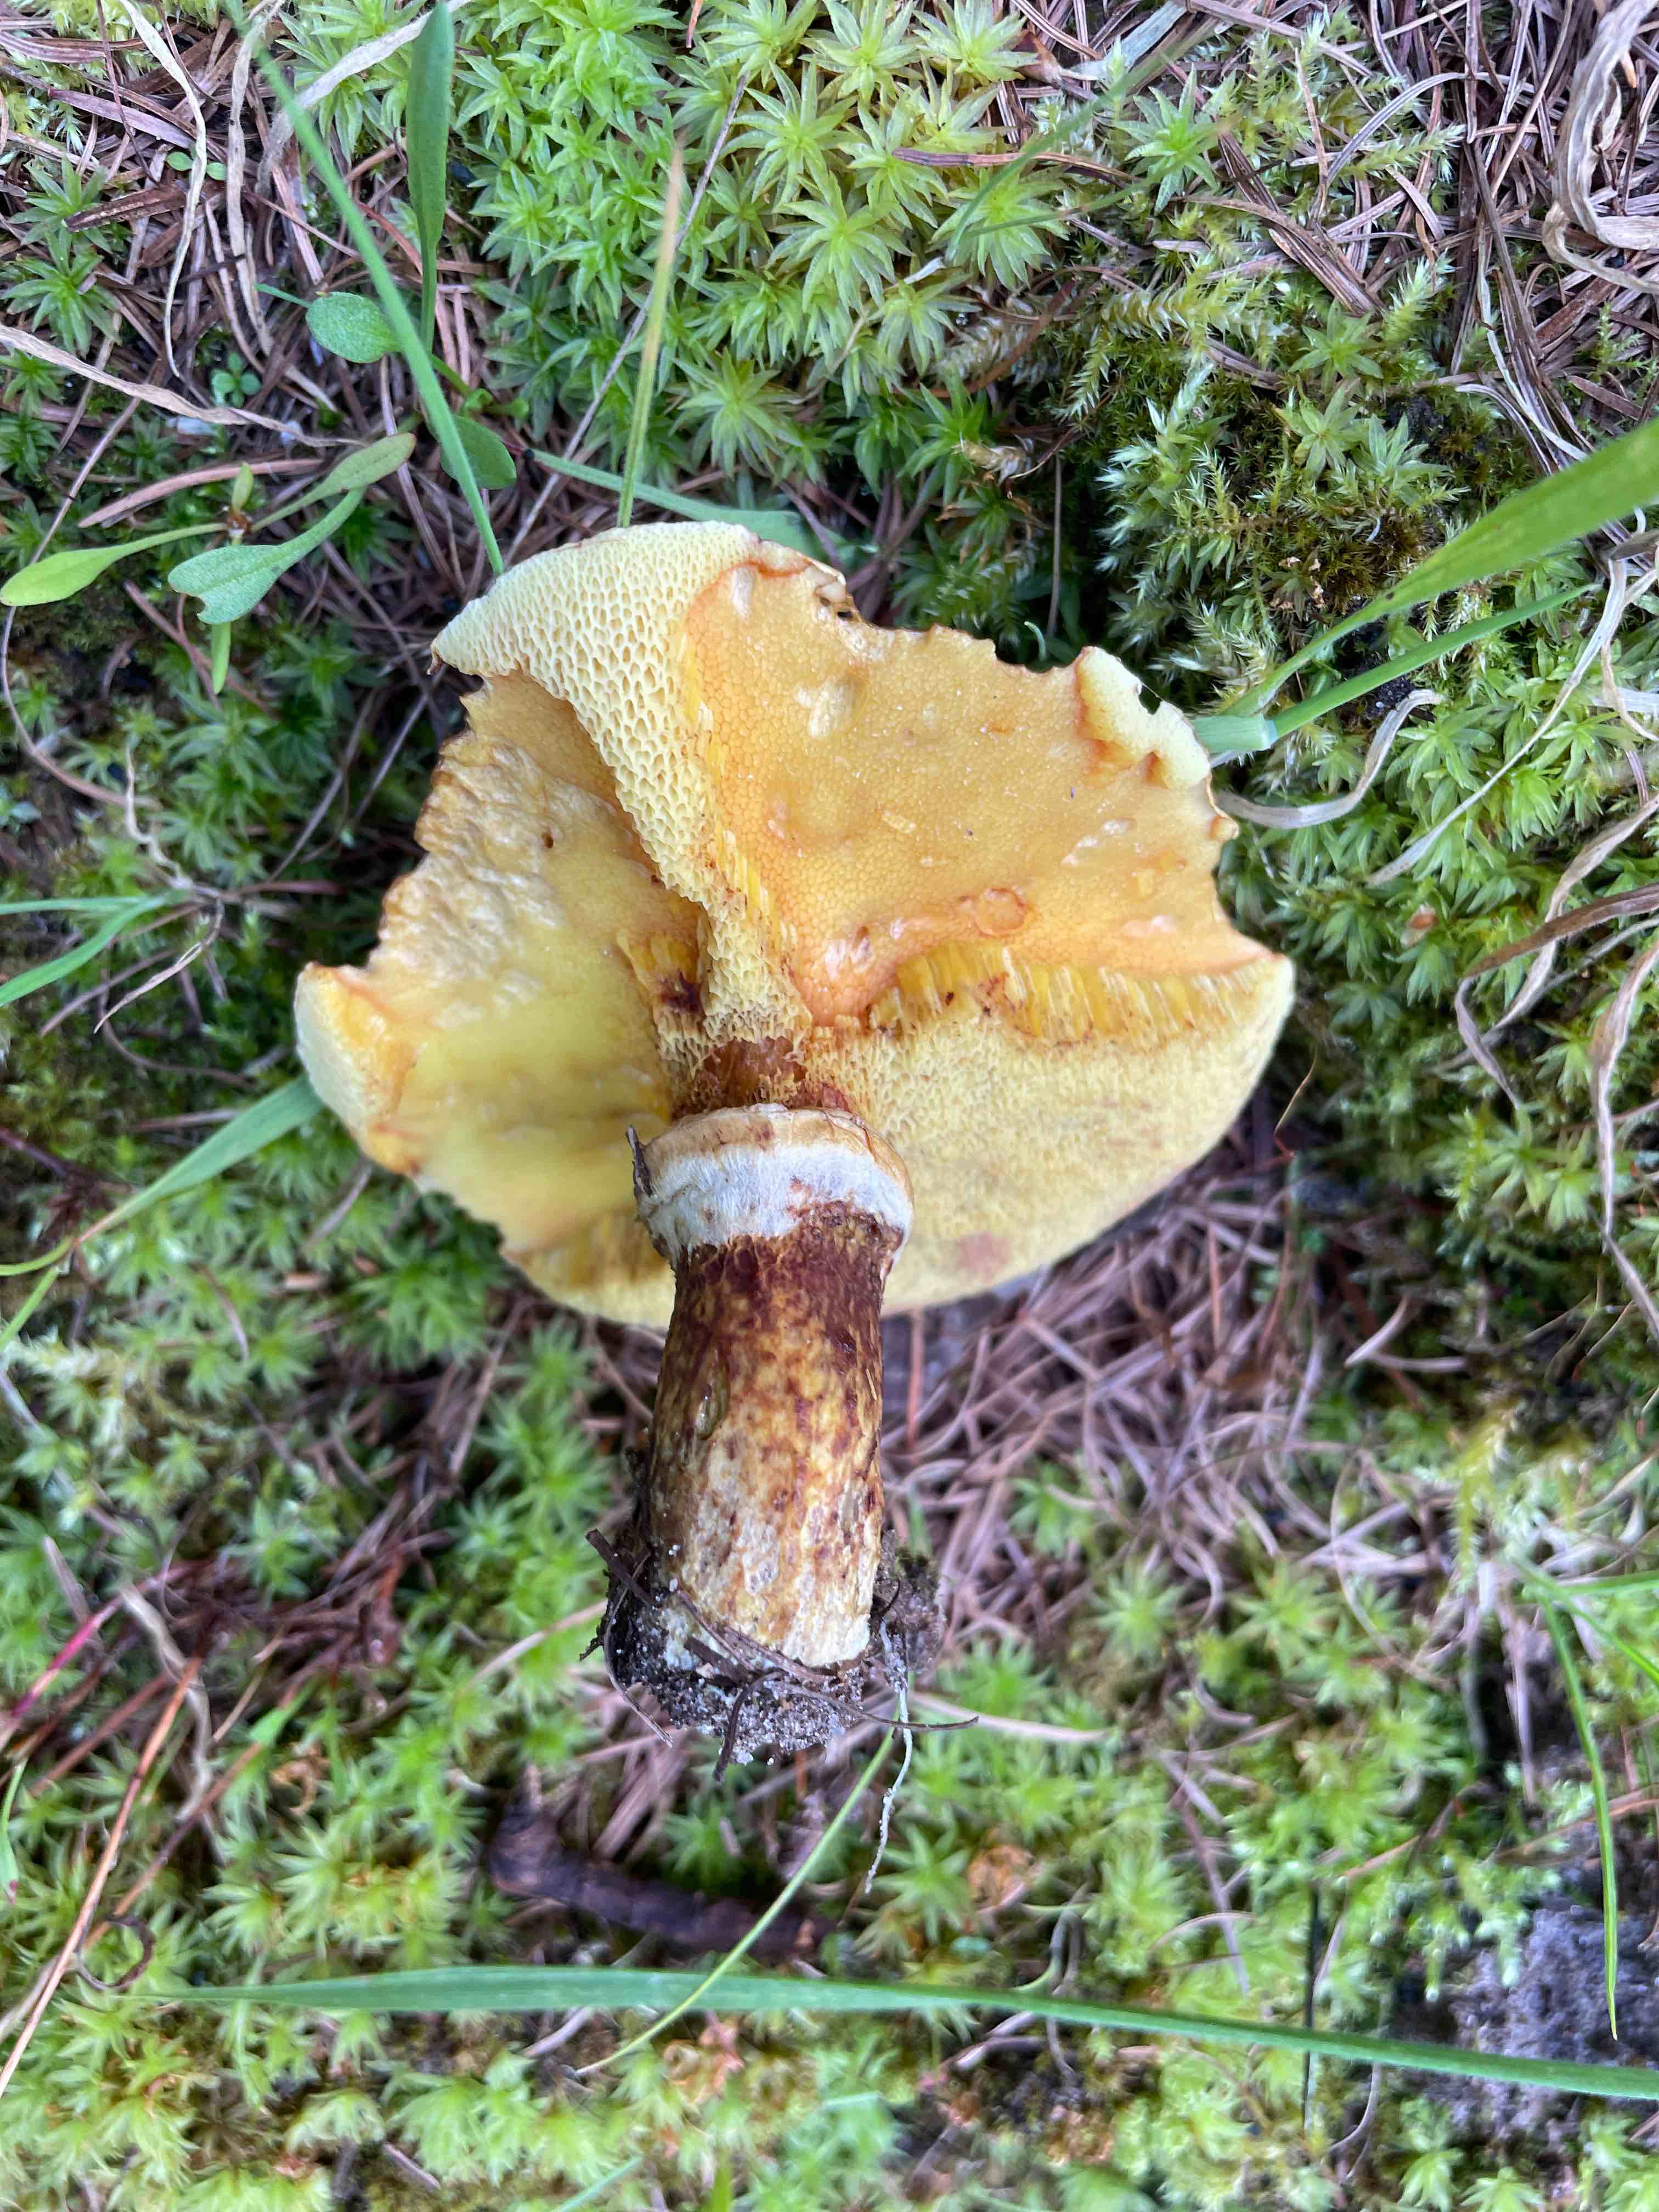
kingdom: Fungi
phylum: Basidiomycota
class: Agaricomycetes
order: Boletales
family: Suillaceae
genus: Suillus
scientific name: Suillus grevillei
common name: lærke-slimrørhat
